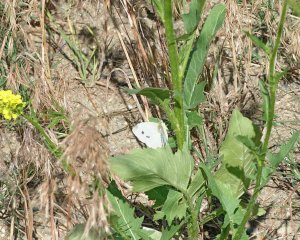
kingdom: Animalia
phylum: Arthropoda
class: Insecta
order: Lepidoptera
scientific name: Lepidoptera
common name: Butterflies
